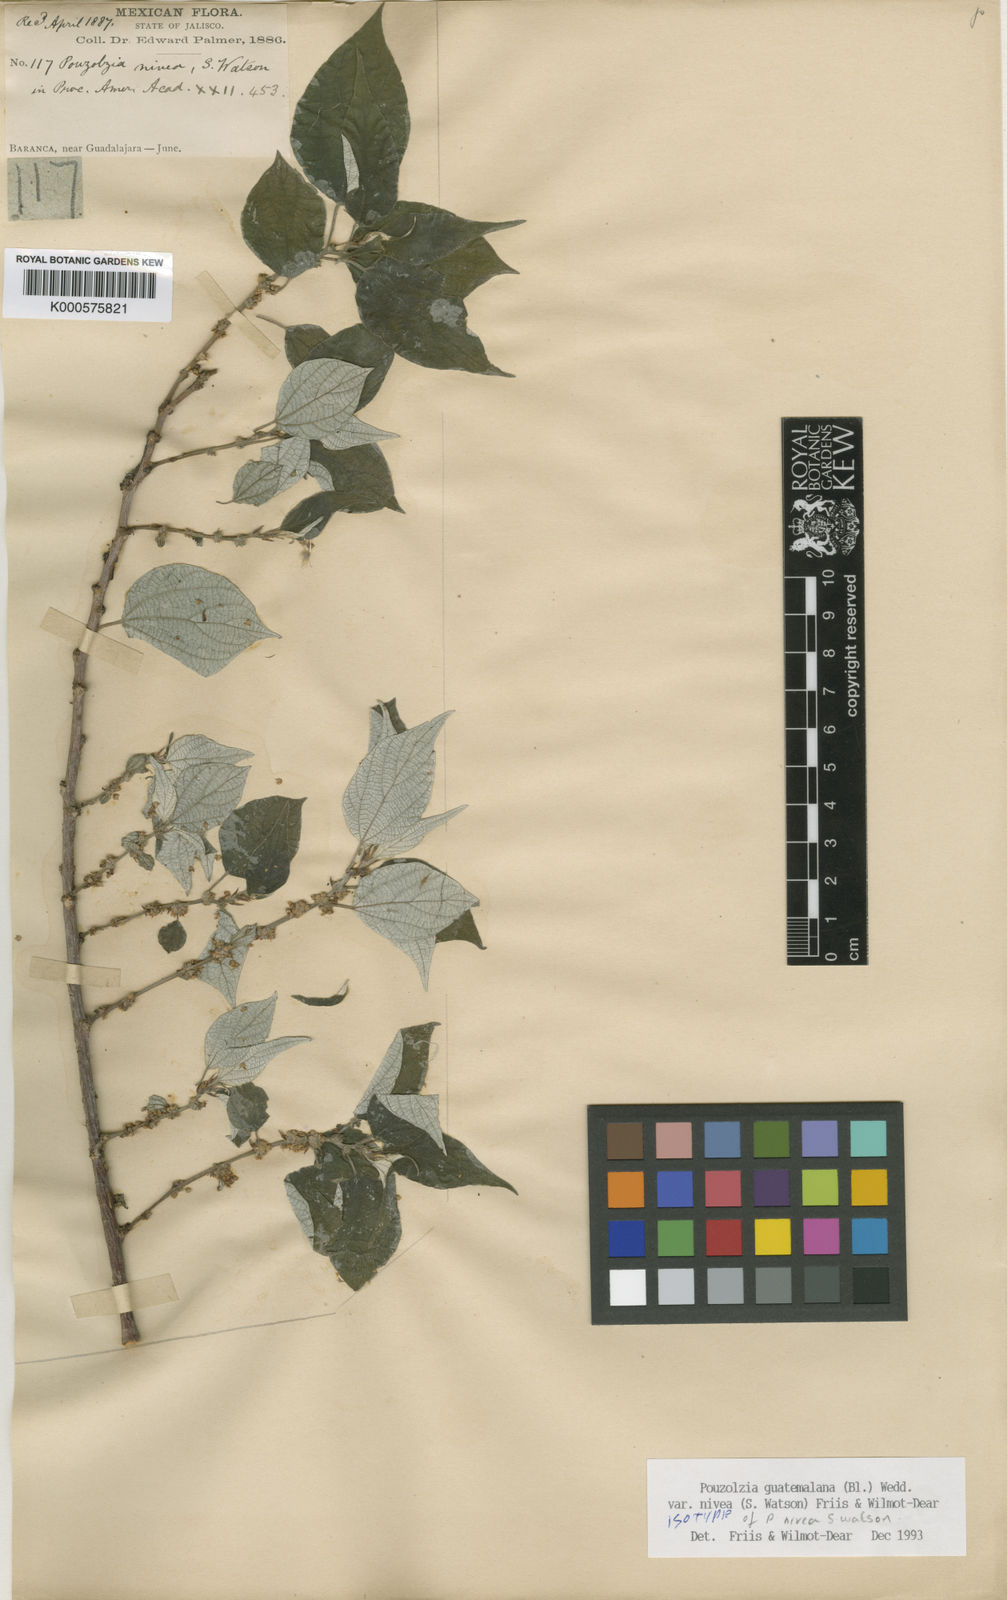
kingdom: Plantae
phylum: Tracheophyta
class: Magnoliopsida
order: Rosales
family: Urticaceae
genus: Pouzolzia
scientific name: Pouzolzia guatemalana
